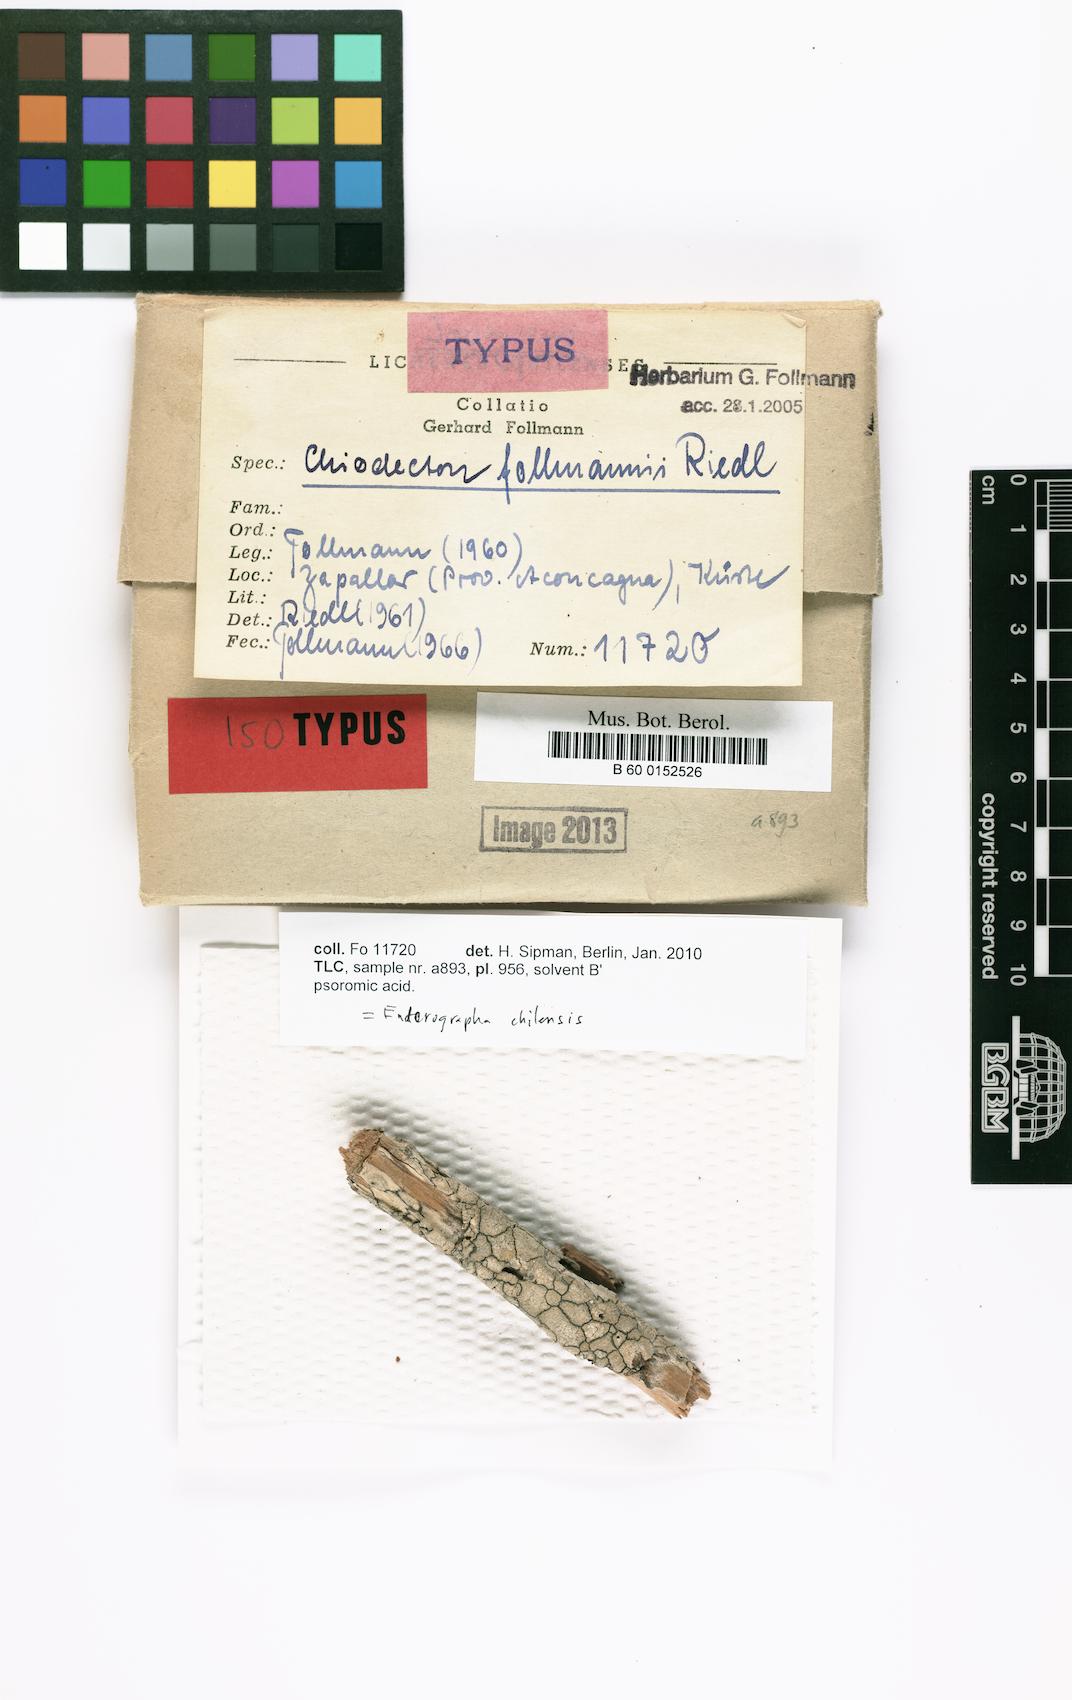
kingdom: Fungi
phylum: Ascomycota
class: Arthoniomycetes
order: Arthoniales
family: Roccellaceae
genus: Chiodecton
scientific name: Chiodecton
